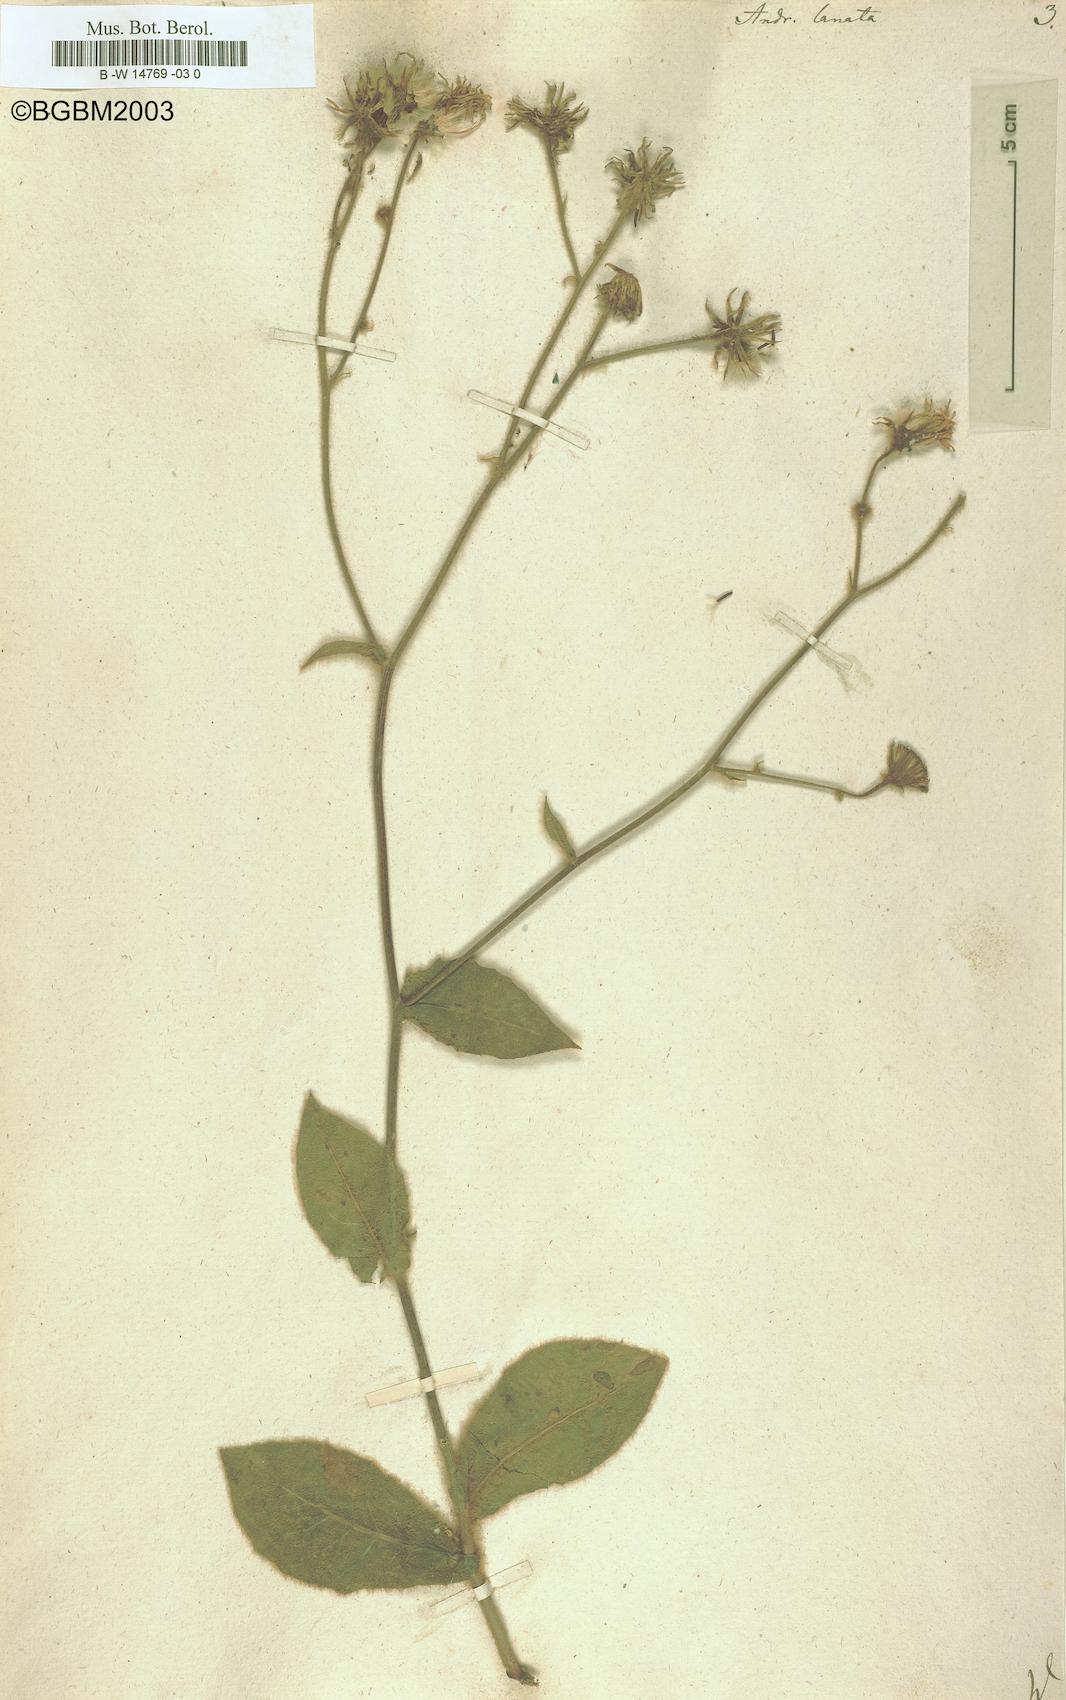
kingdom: Plantae
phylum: Tracheophyta
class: Magnoliopsida
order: Asterales
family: Asteraceae
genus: Andryala
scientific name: Andryala lanata
